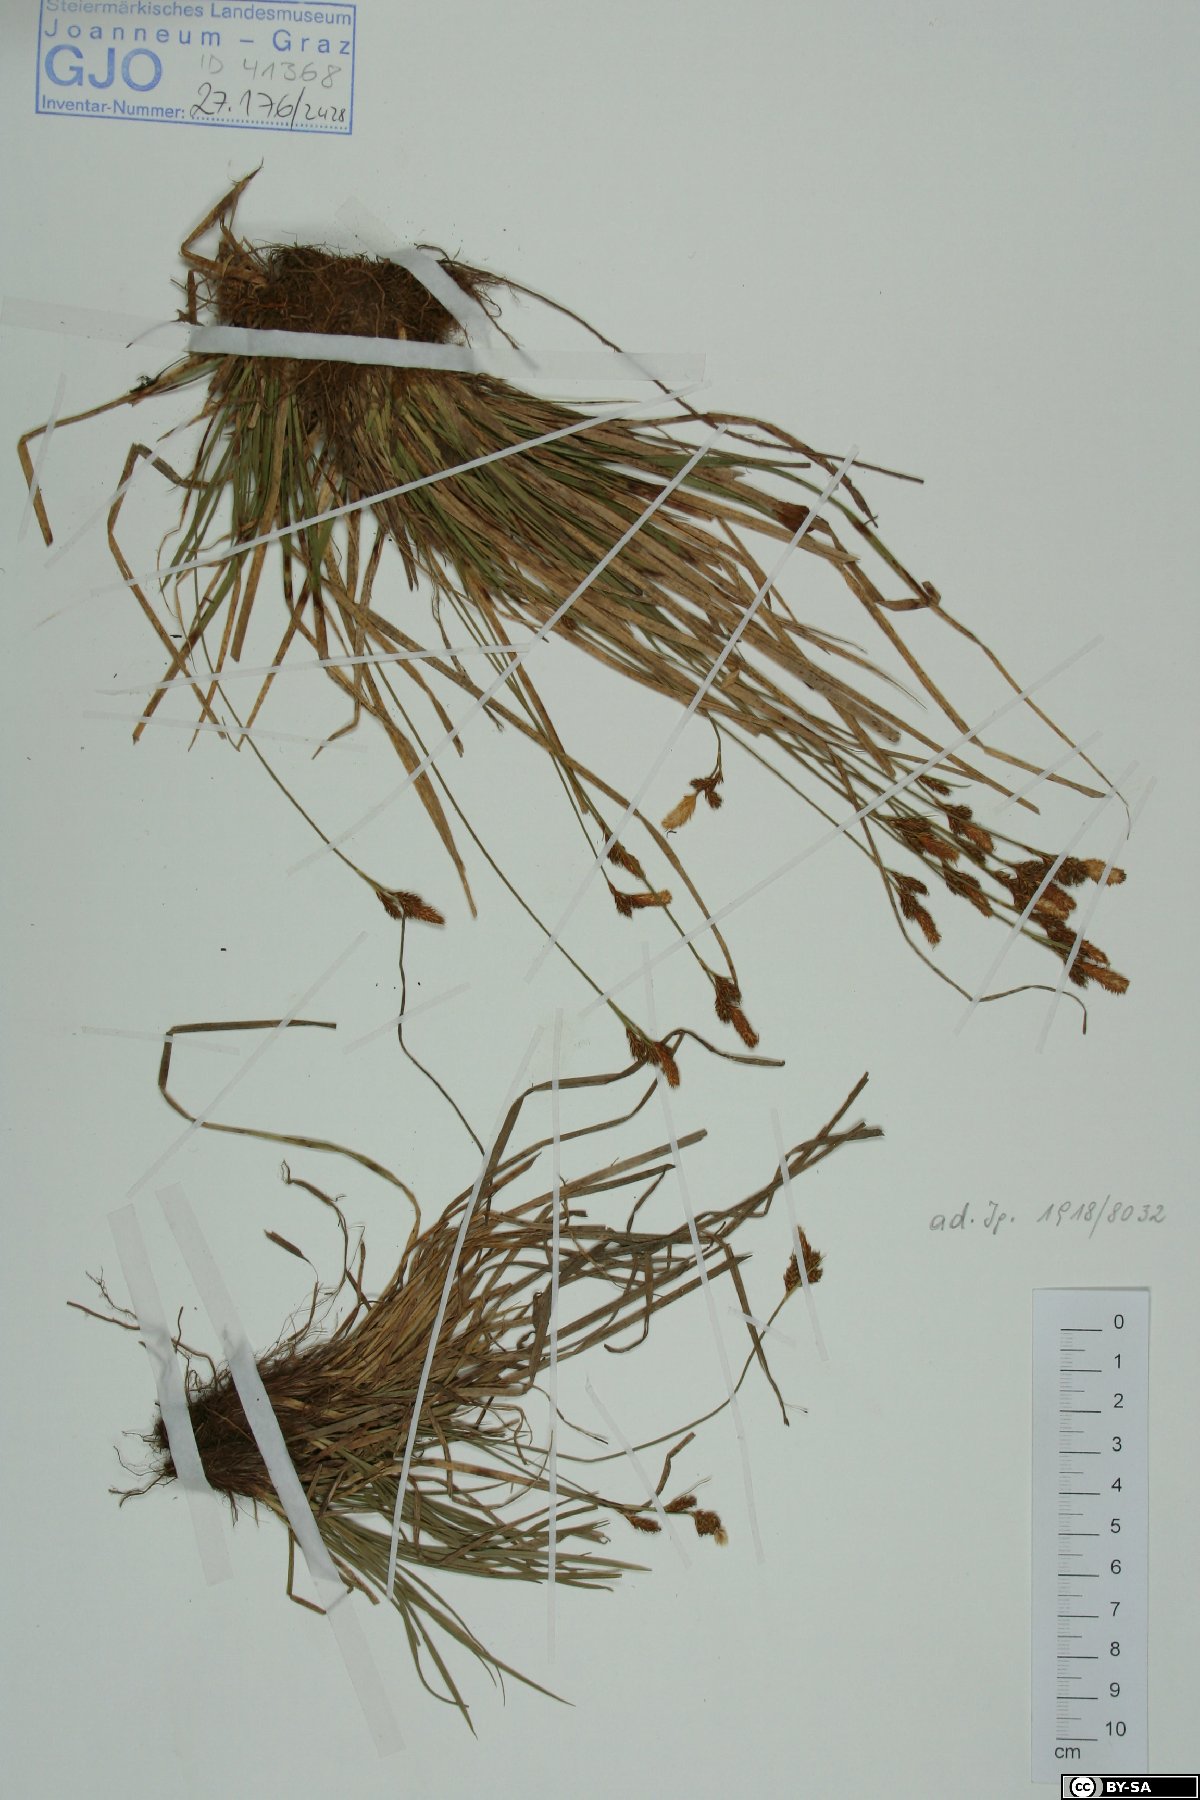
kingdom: Plantae
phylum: Tracheophyta
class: Liliopsida
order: Poales
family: Cyperaceae
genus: Carex
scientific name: Carex umbrosa
